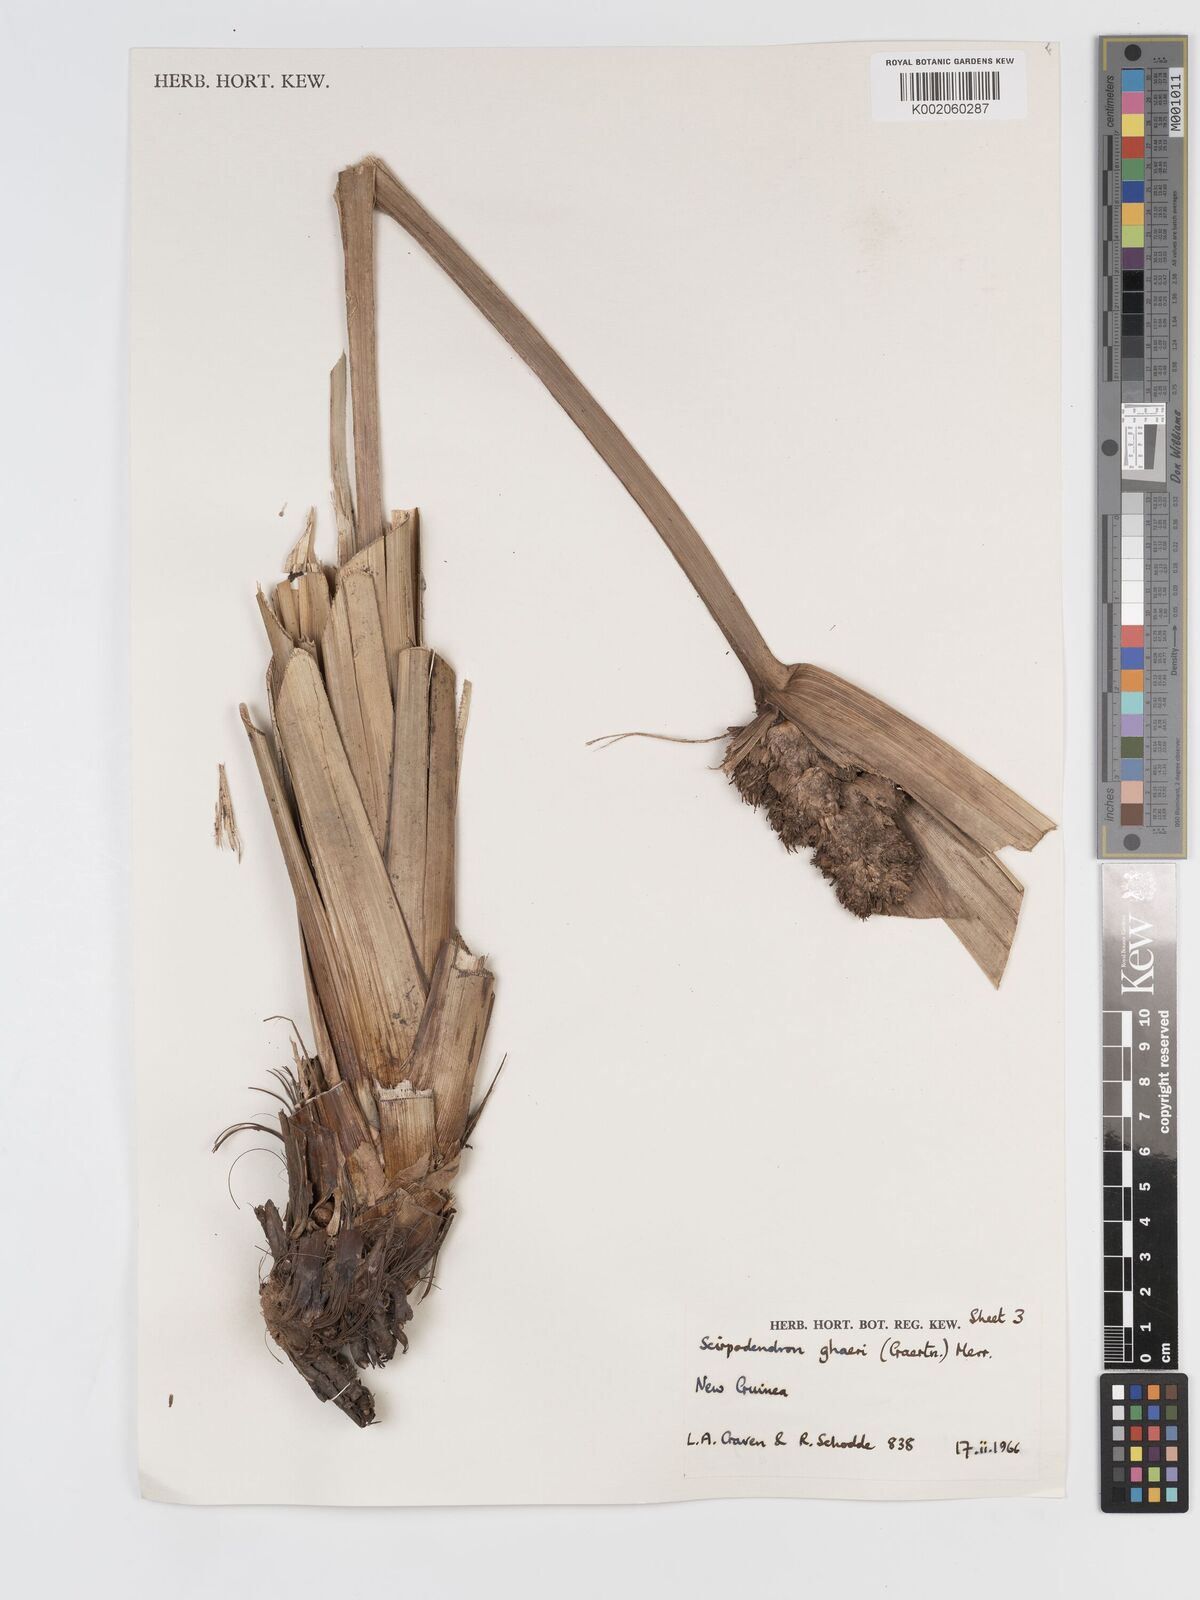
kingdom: Plantae
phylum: Tracheophyta
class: Liliopsida
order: Poales
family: Cyperaceae
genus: Scirpodendron
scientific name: Scirpodendron ghaeri
